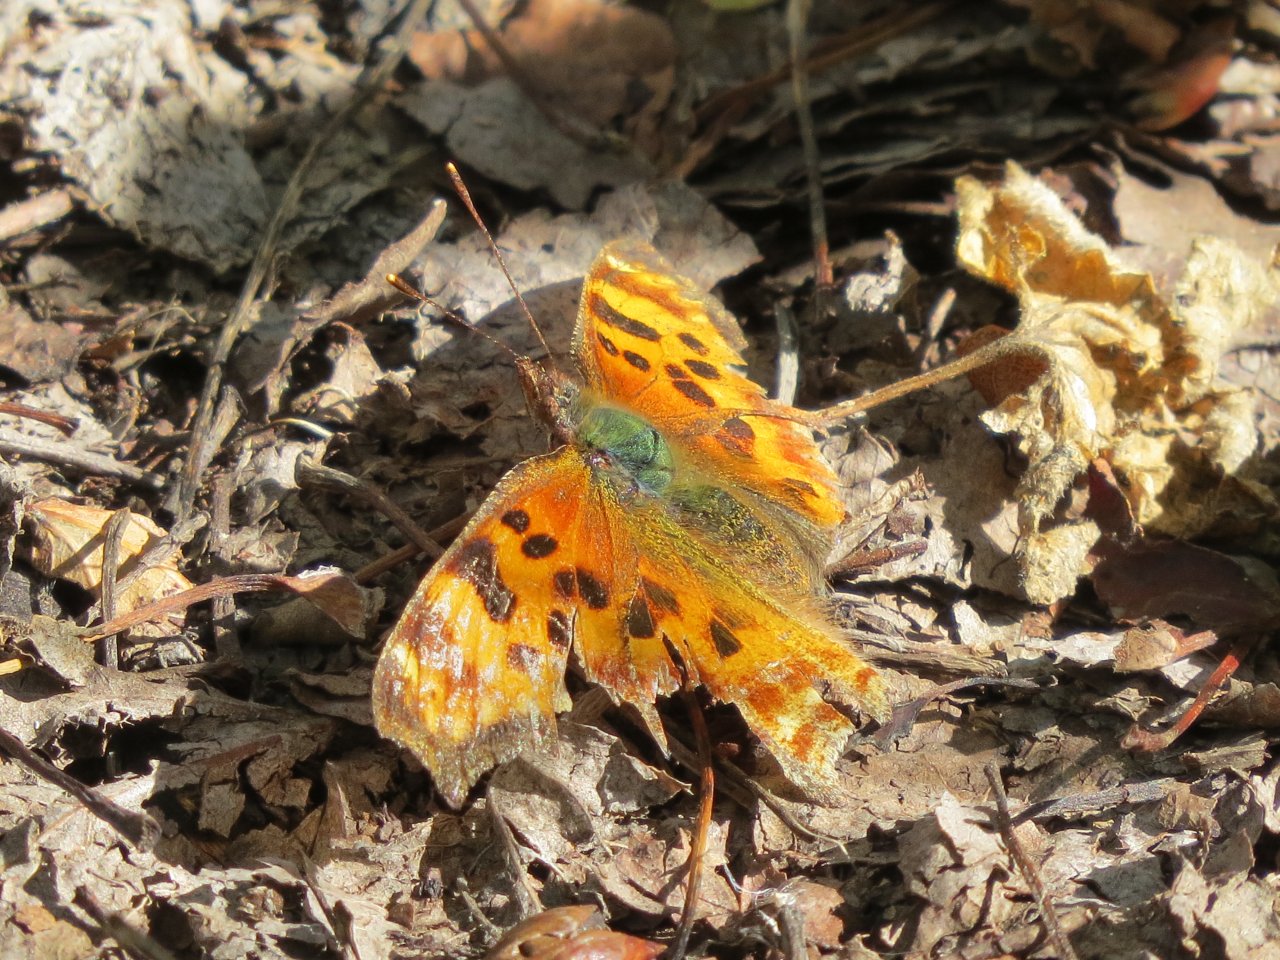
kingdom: Animalia
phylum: Arthropoda
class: Insecta
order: Lepidoptera
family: Nymphalidae
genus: Polygonia
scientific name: Polygonia satyrus
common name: Satyr Comma
